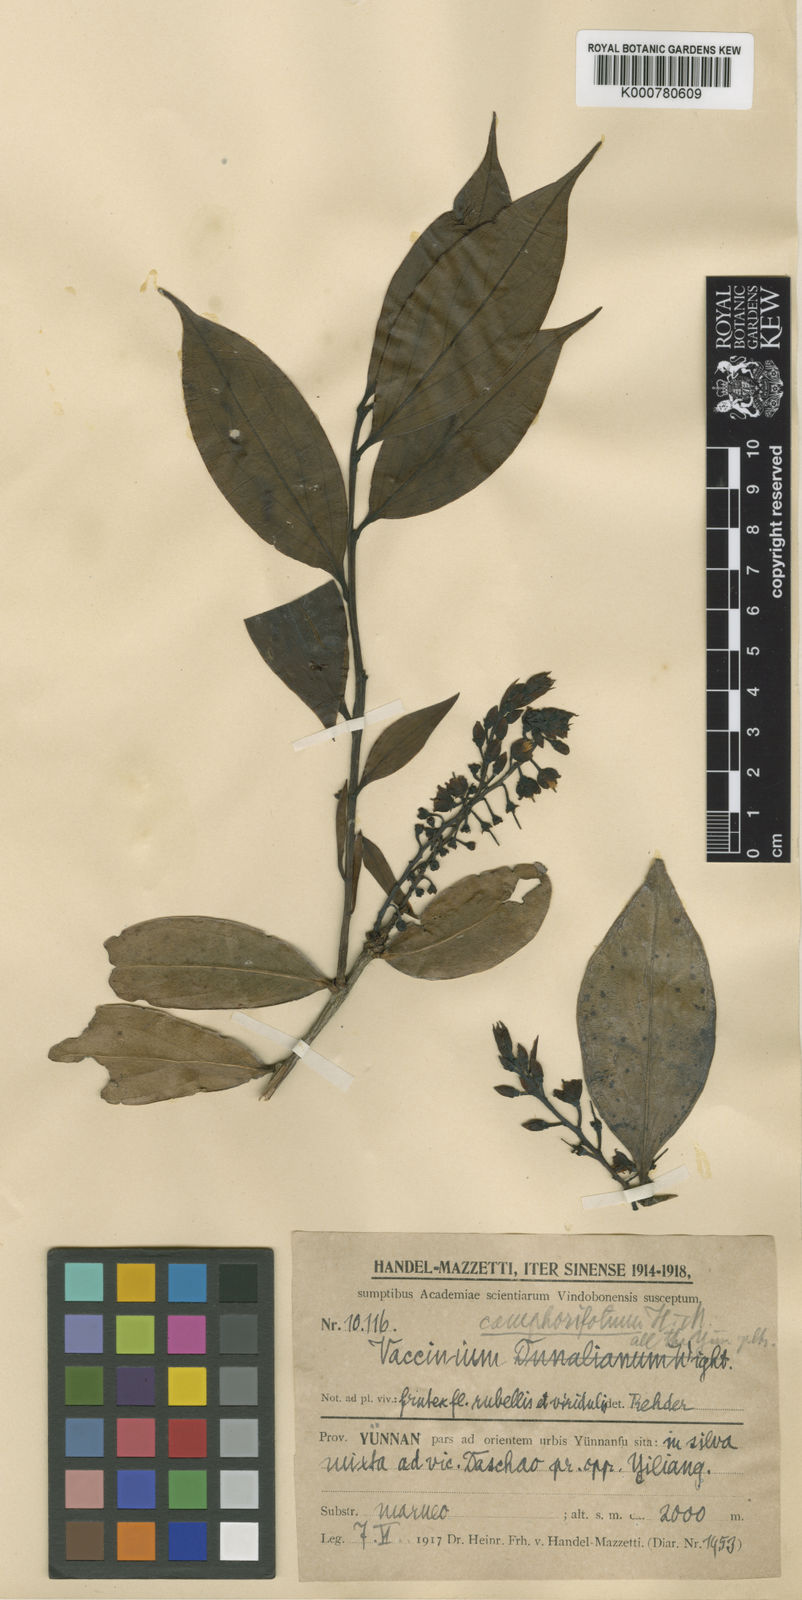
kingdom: Plantae
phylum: Tracheophyta
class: Magnoliopsida
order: Ericales
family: Ericaceae
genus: Vaccinium
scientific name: Vaccinium dunalianum
